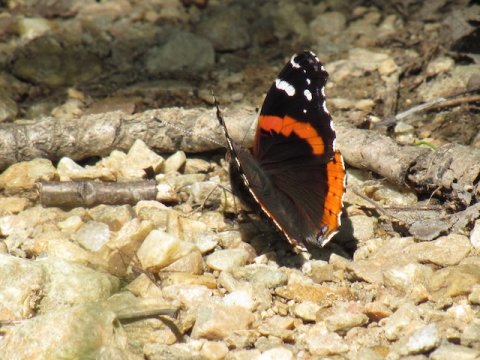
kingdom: Animalia
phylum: Arthropoda
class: Insecta
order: Lepidoptera
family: Nymphalidae
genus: Vanessa
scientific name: Vanessa atalanta
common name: Red Admiral
